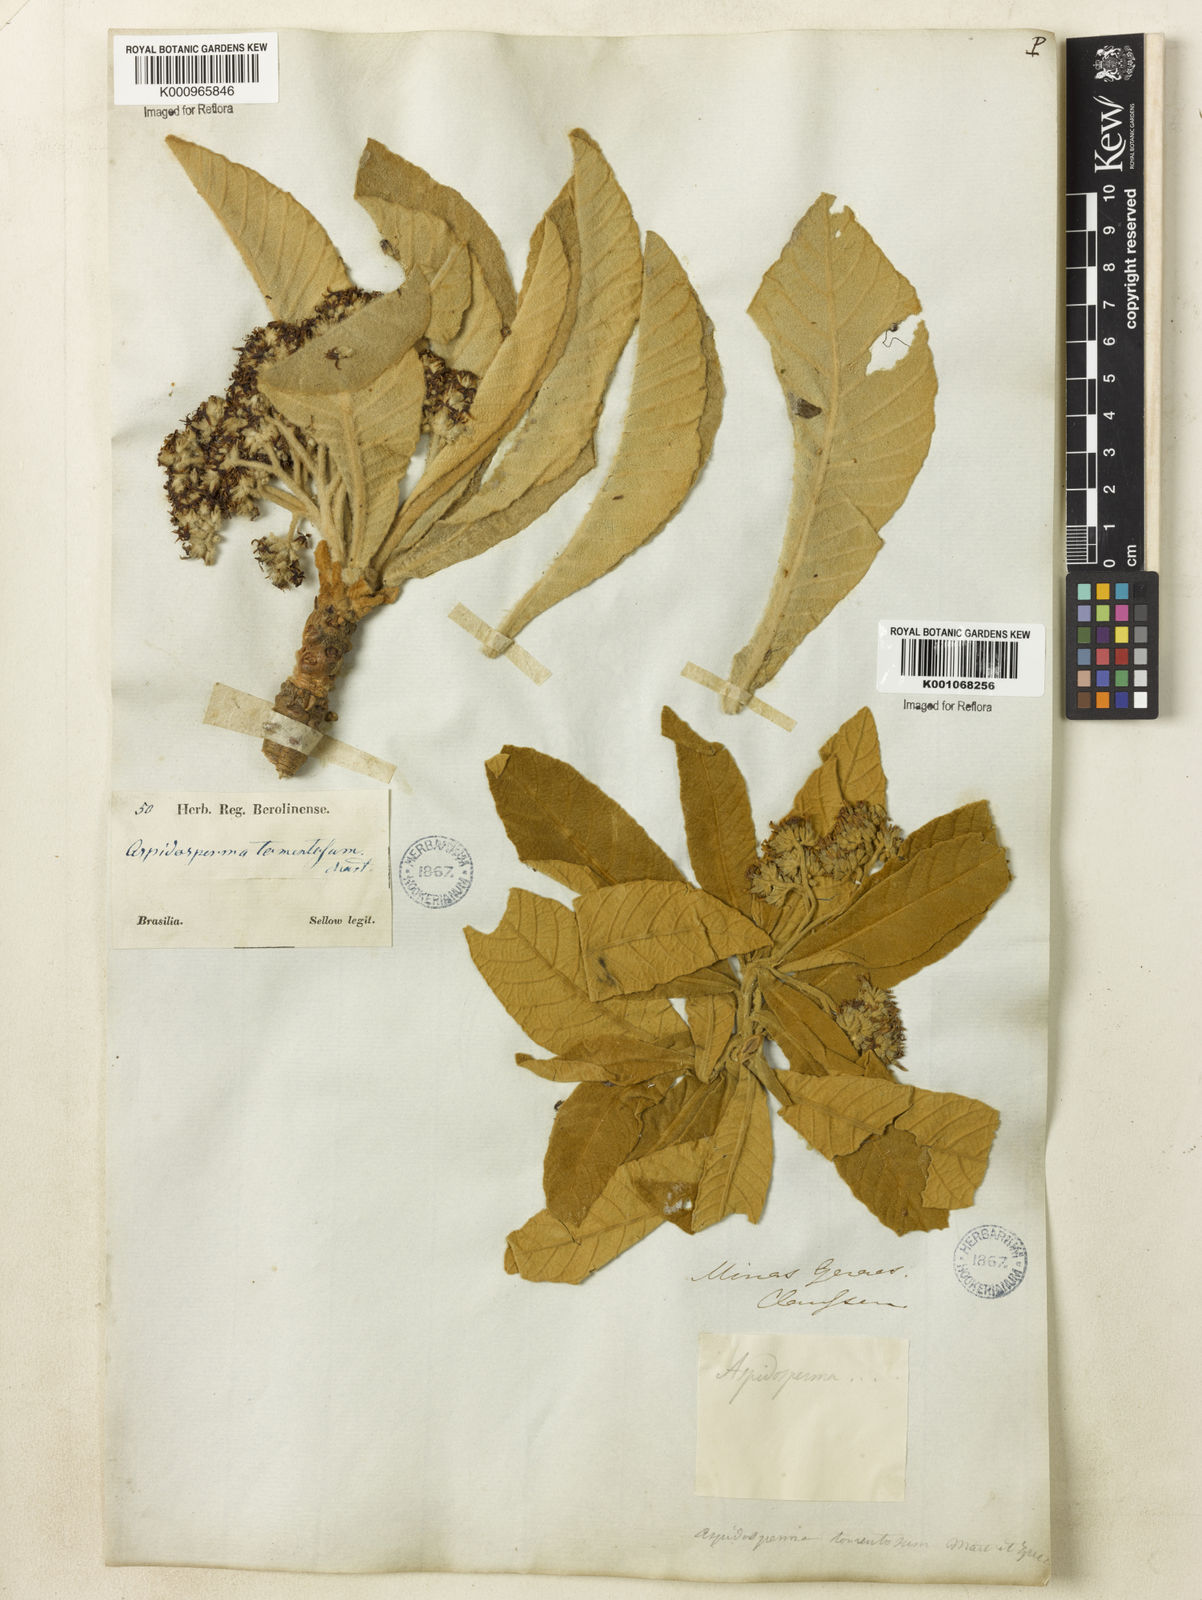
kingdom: Plantae
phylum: Tracheophyta
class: Magnoliopsida
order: Gentianales
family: Apocynaceae
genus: Aspidosperma
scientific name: Aspidosperma tomentosum
